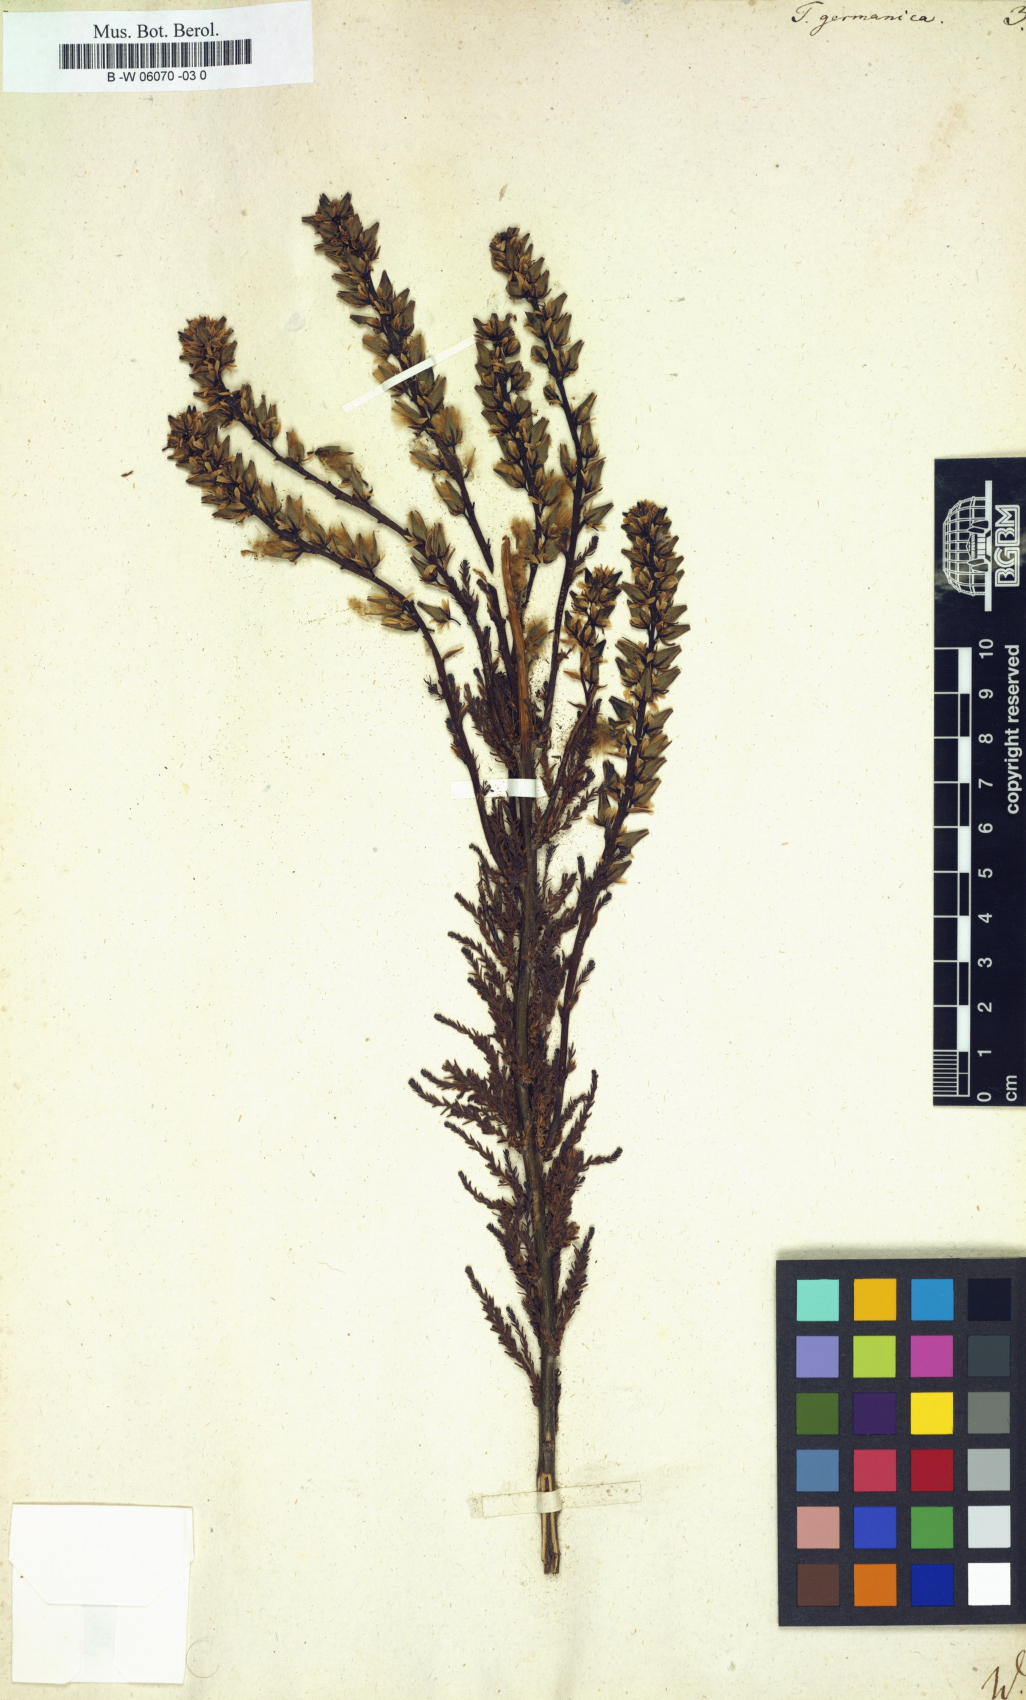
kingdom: Plantae
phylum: Tracheophyta
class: Magnoliopsida
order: Caryophyllales
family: Tamaricaceae
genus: Tamarix
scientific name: Tamarix germanica
